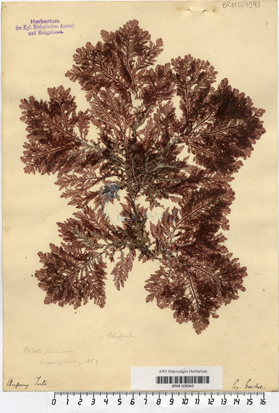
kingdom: Plantae
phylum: Rhodophyta
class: Florideophyceae
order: Ceramiales
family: Wrangeliaceae
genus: Ptilota
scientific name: Ptilota gunneri
